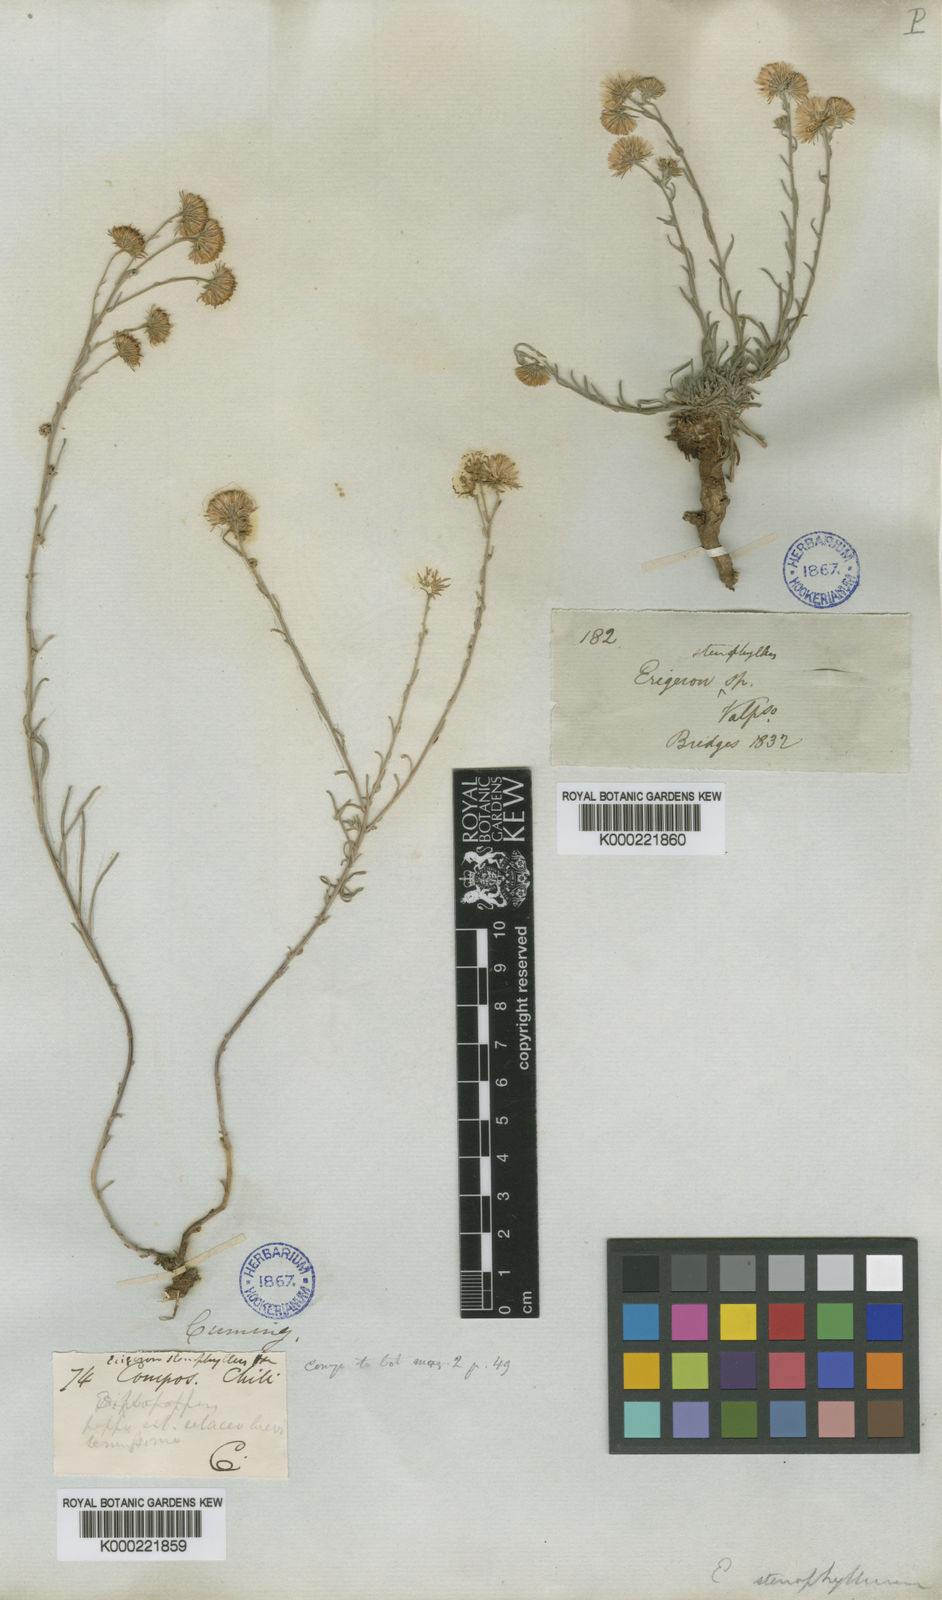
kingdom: Plantae
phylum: Tracheophyta
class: Magnoliopsida
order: Asterales
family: Asteraceae
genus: Erigeron
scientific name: Erigeron stenophyllus
